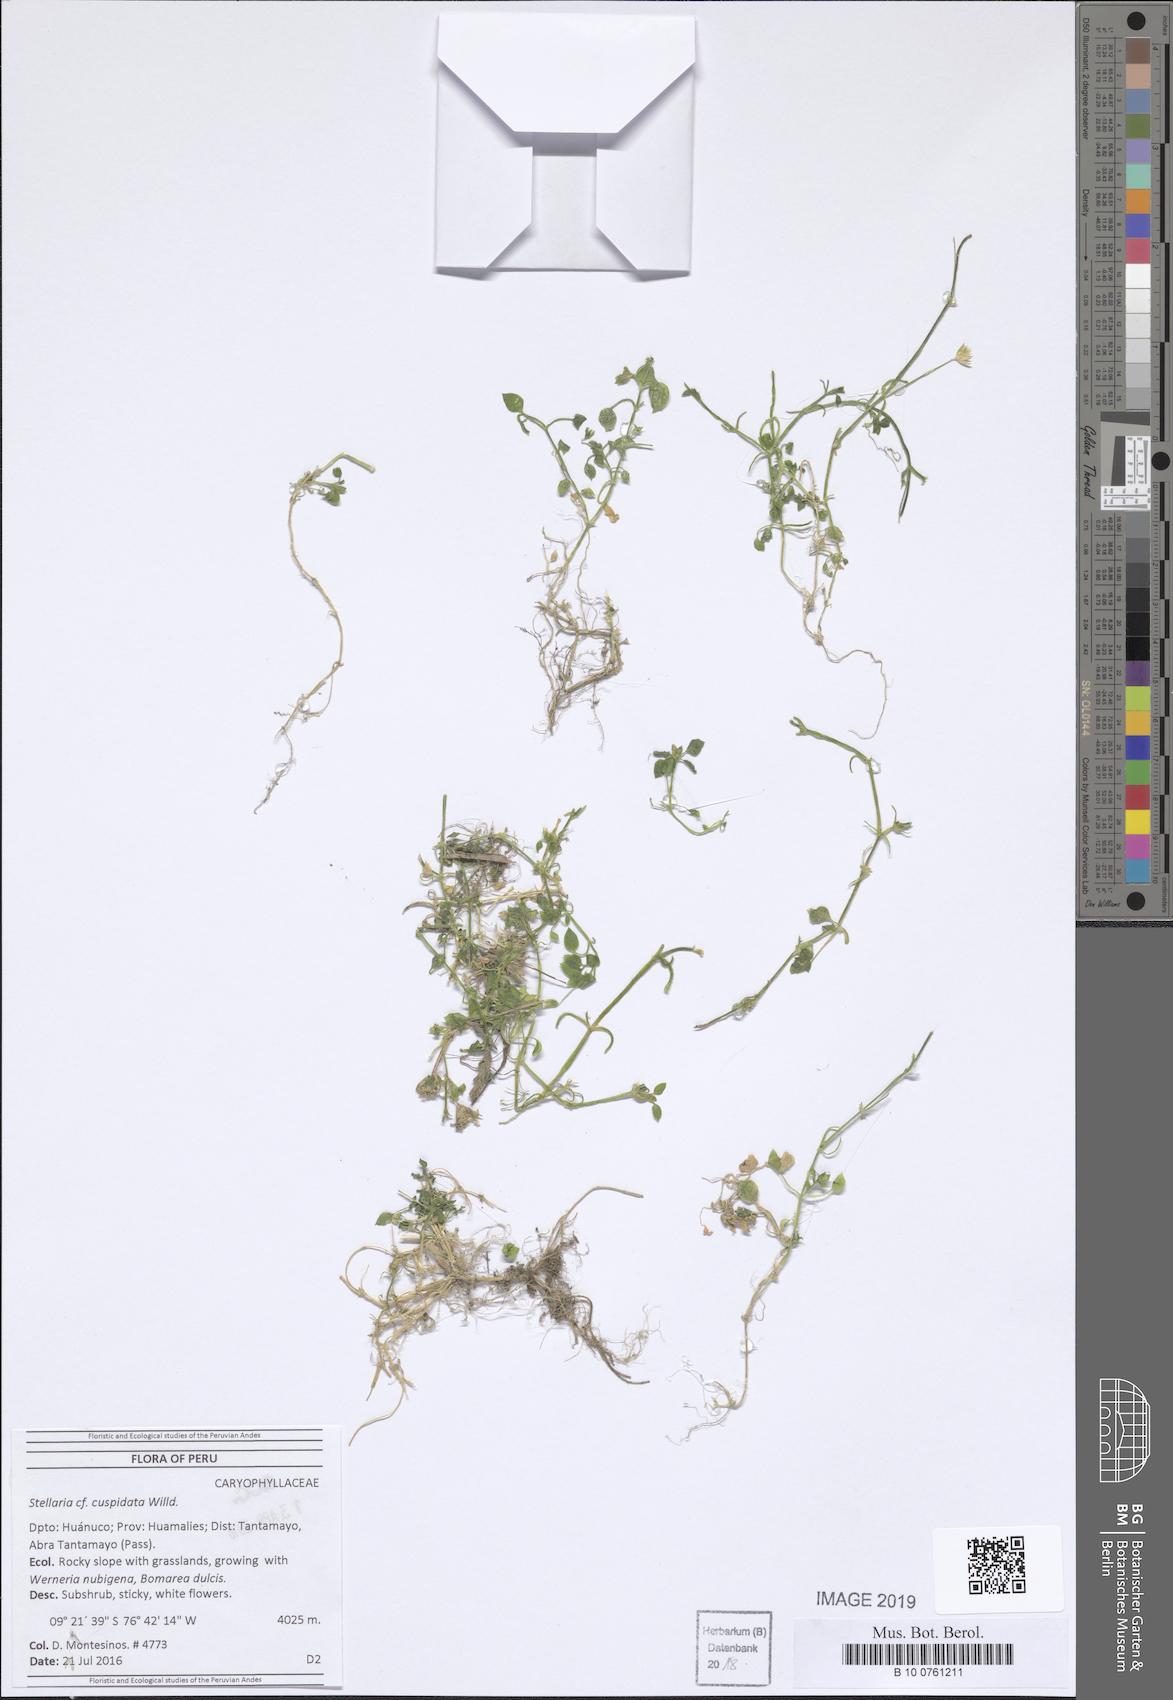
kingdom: Plantae
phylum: Tracheophyta
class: Magnoliopsida
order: Caryophyllales
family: Caryophyllaceae
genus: Stellaria
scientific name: Stellaria cuspidata
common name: Mexican chickweed
